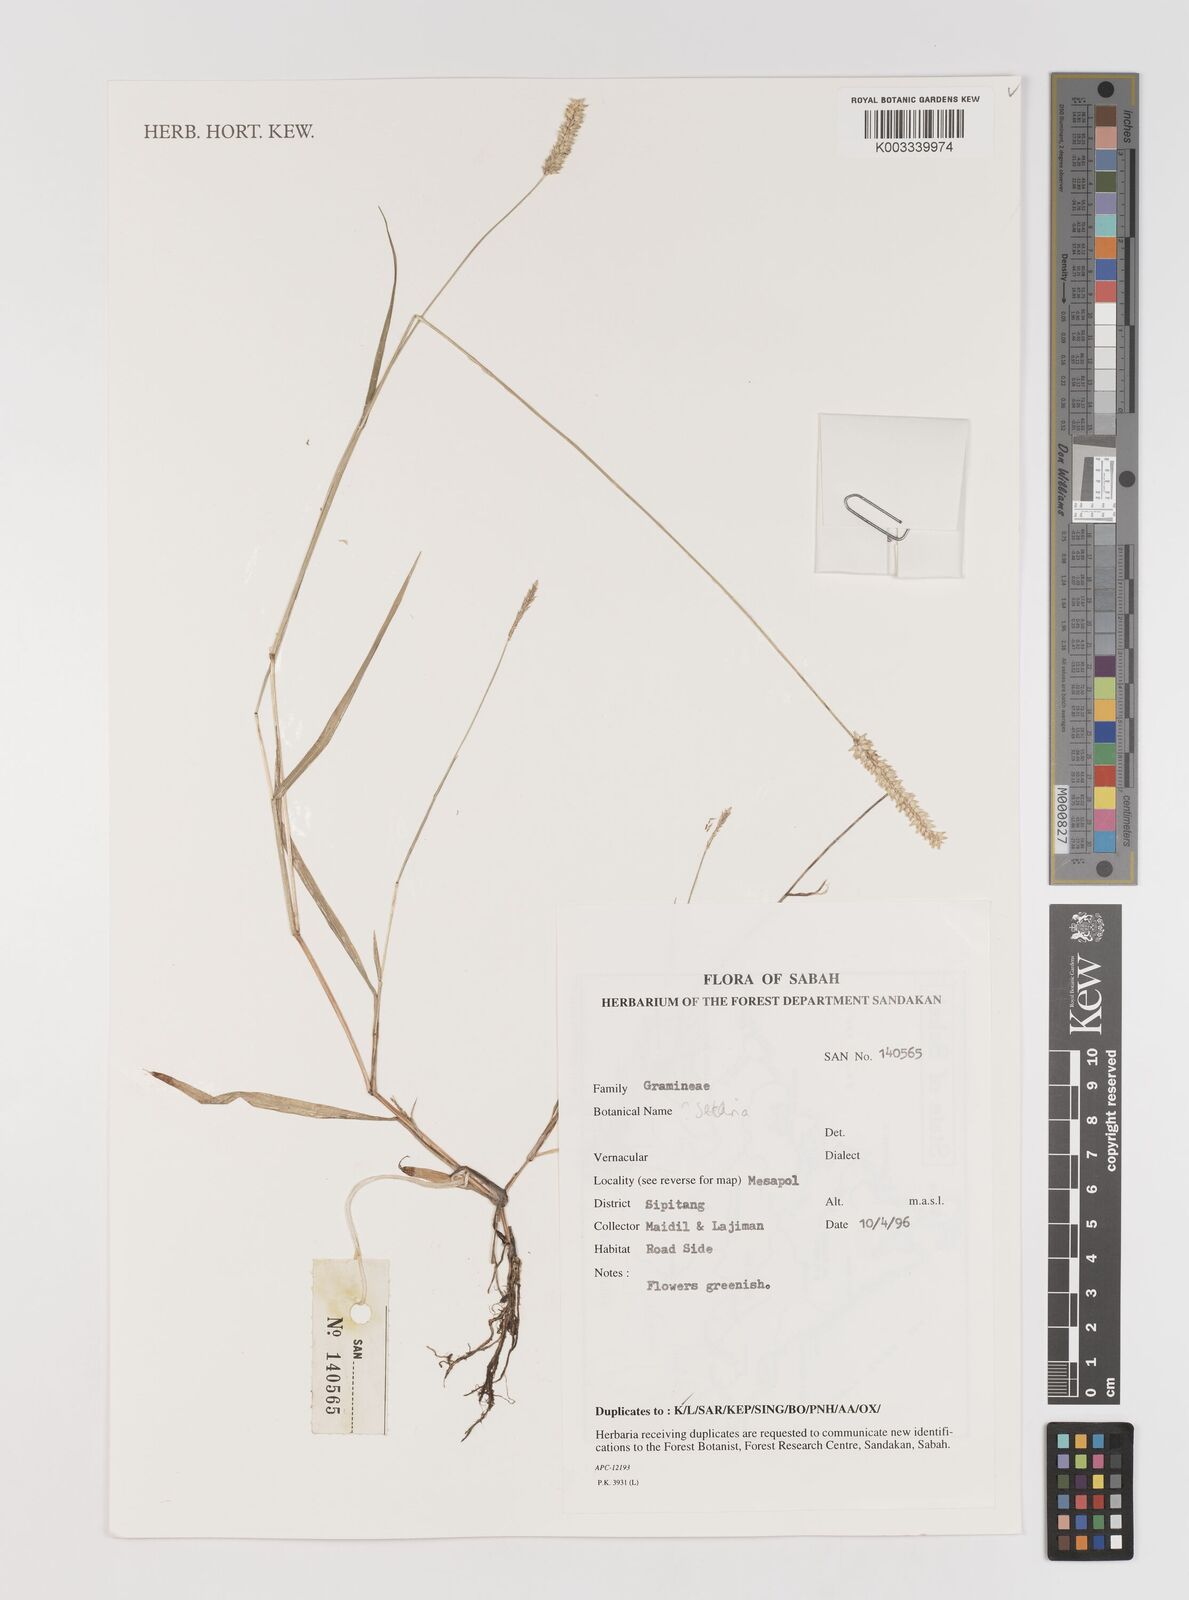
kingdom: Plantae
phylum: Tracheophyta
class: Liliopsida
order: Poales
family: Poaceae
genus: Setaria
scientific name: Setaria
